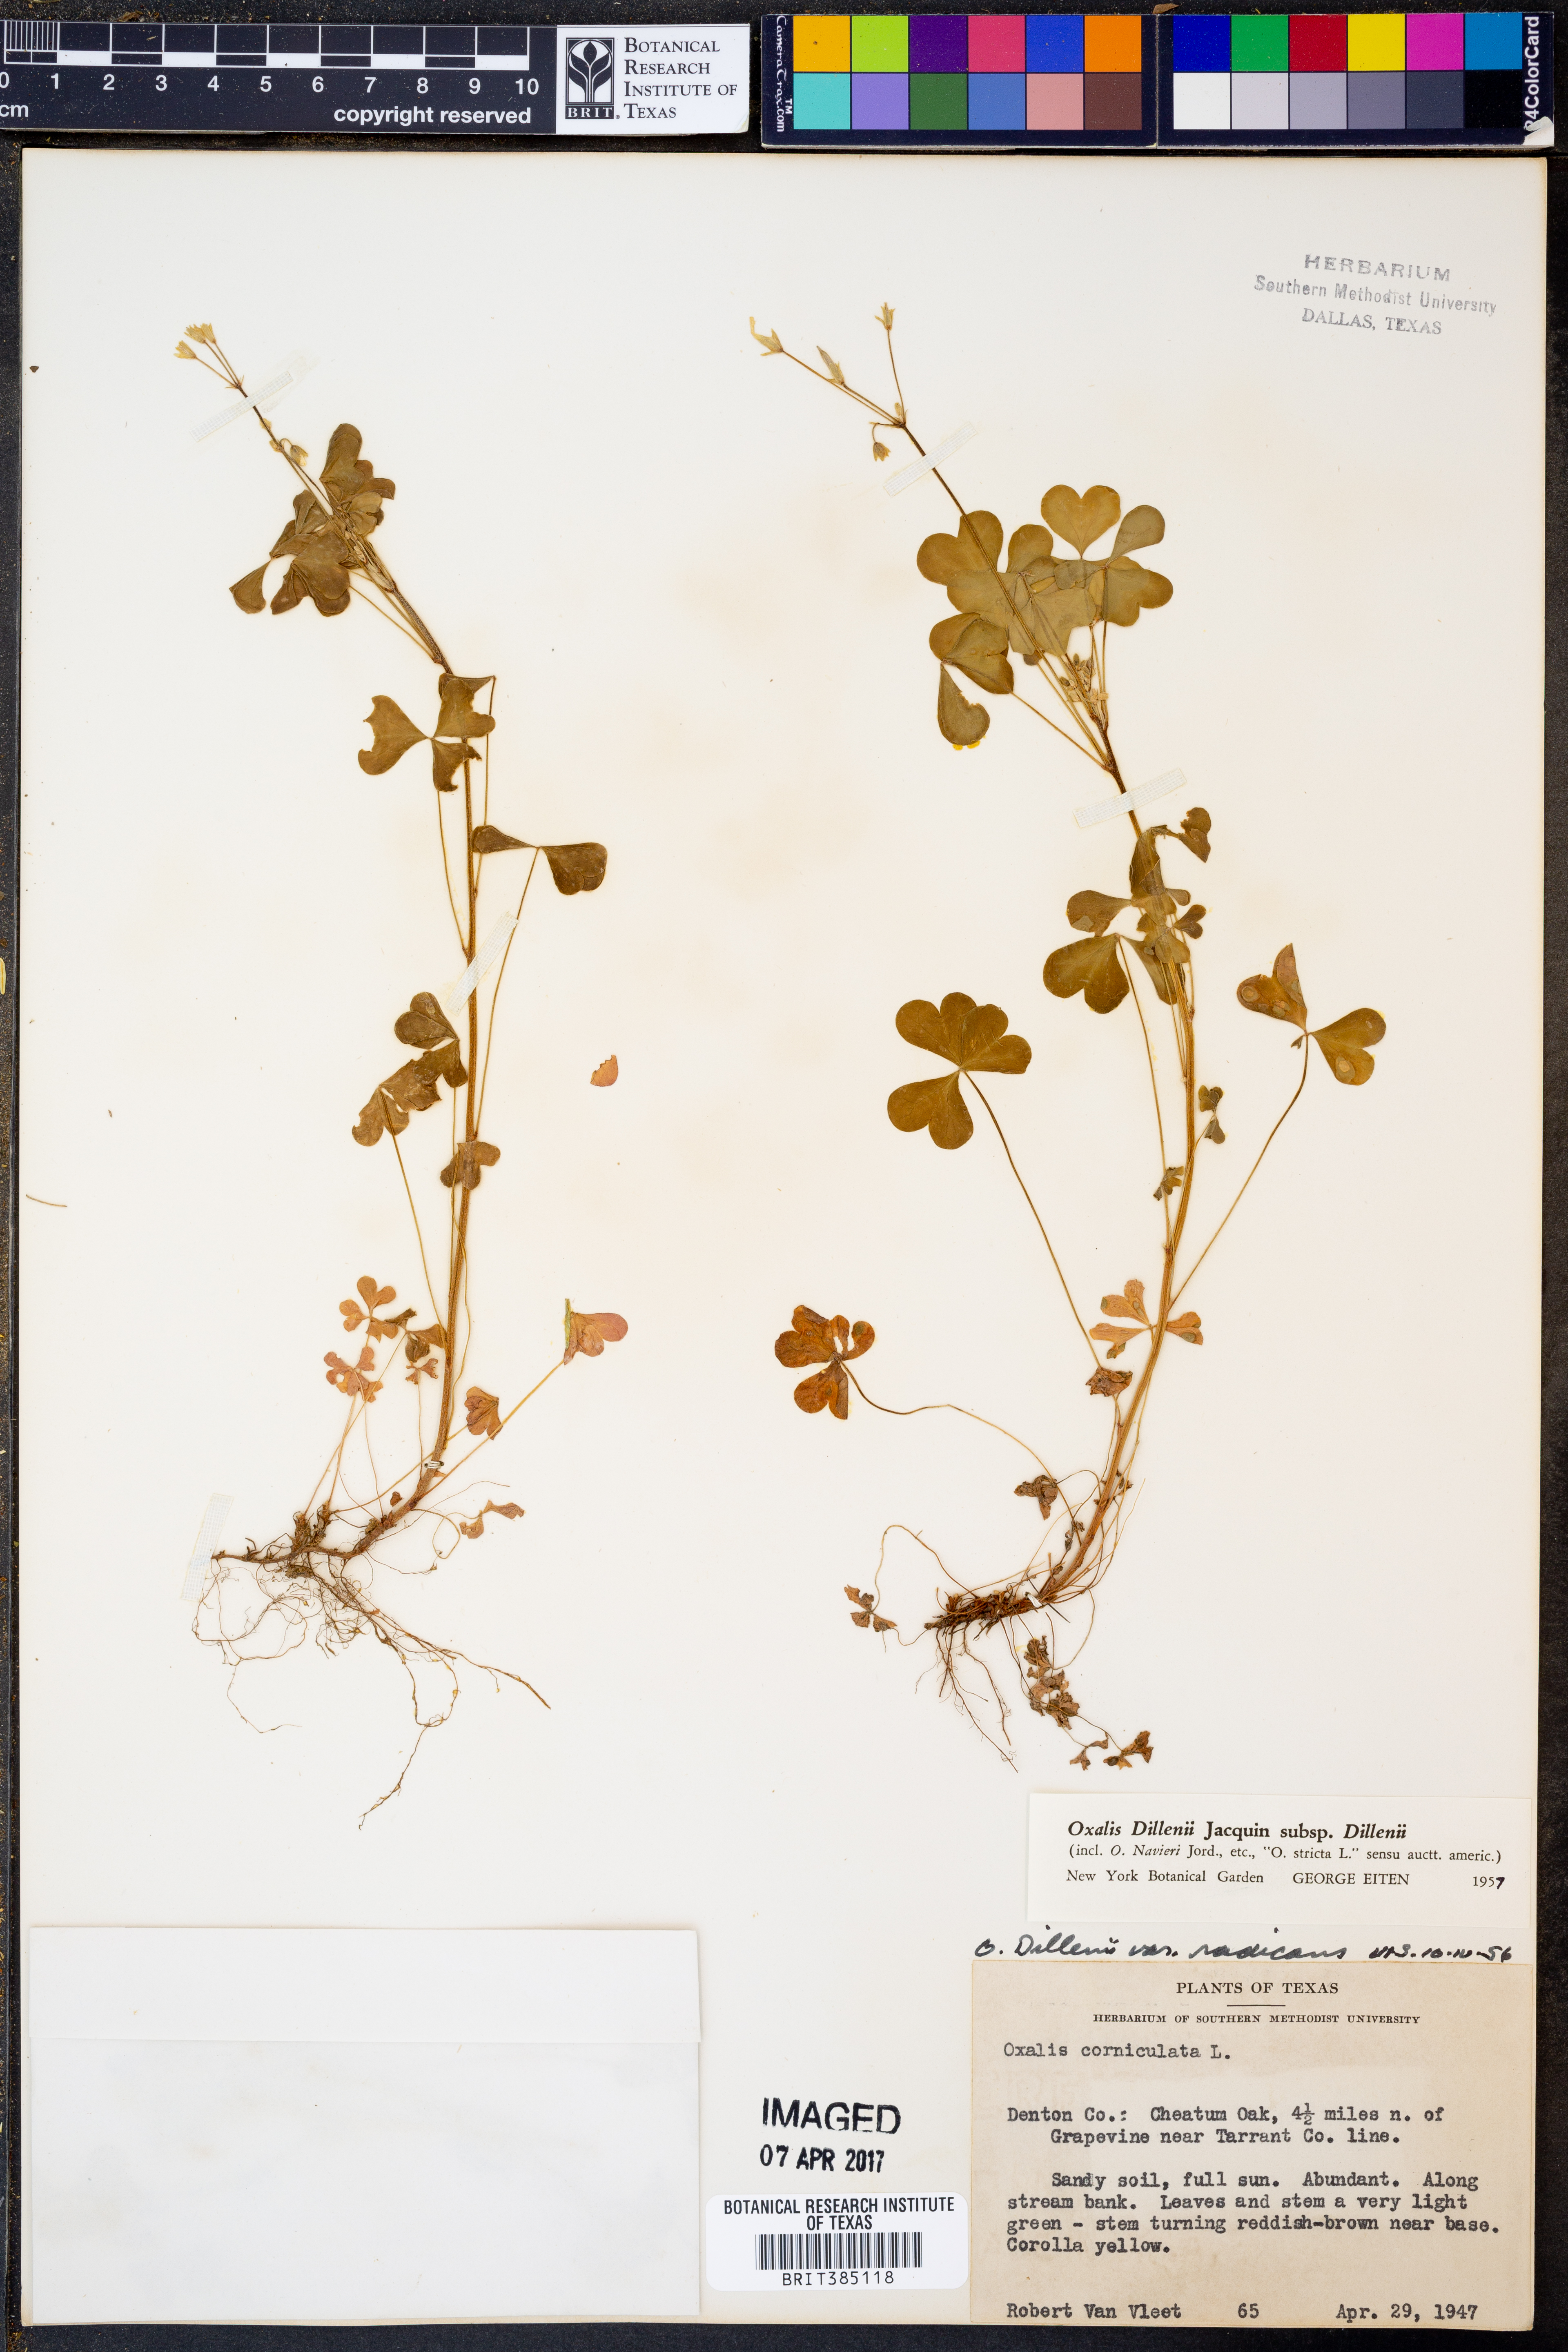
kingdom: Plantae
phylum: Tracheophyta
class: Magnoliopsida
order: Oxalidales
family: Oxalidaceae
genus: Oxalis
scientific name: Oxalis dillenii
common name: Sussex yellow-sorrel
